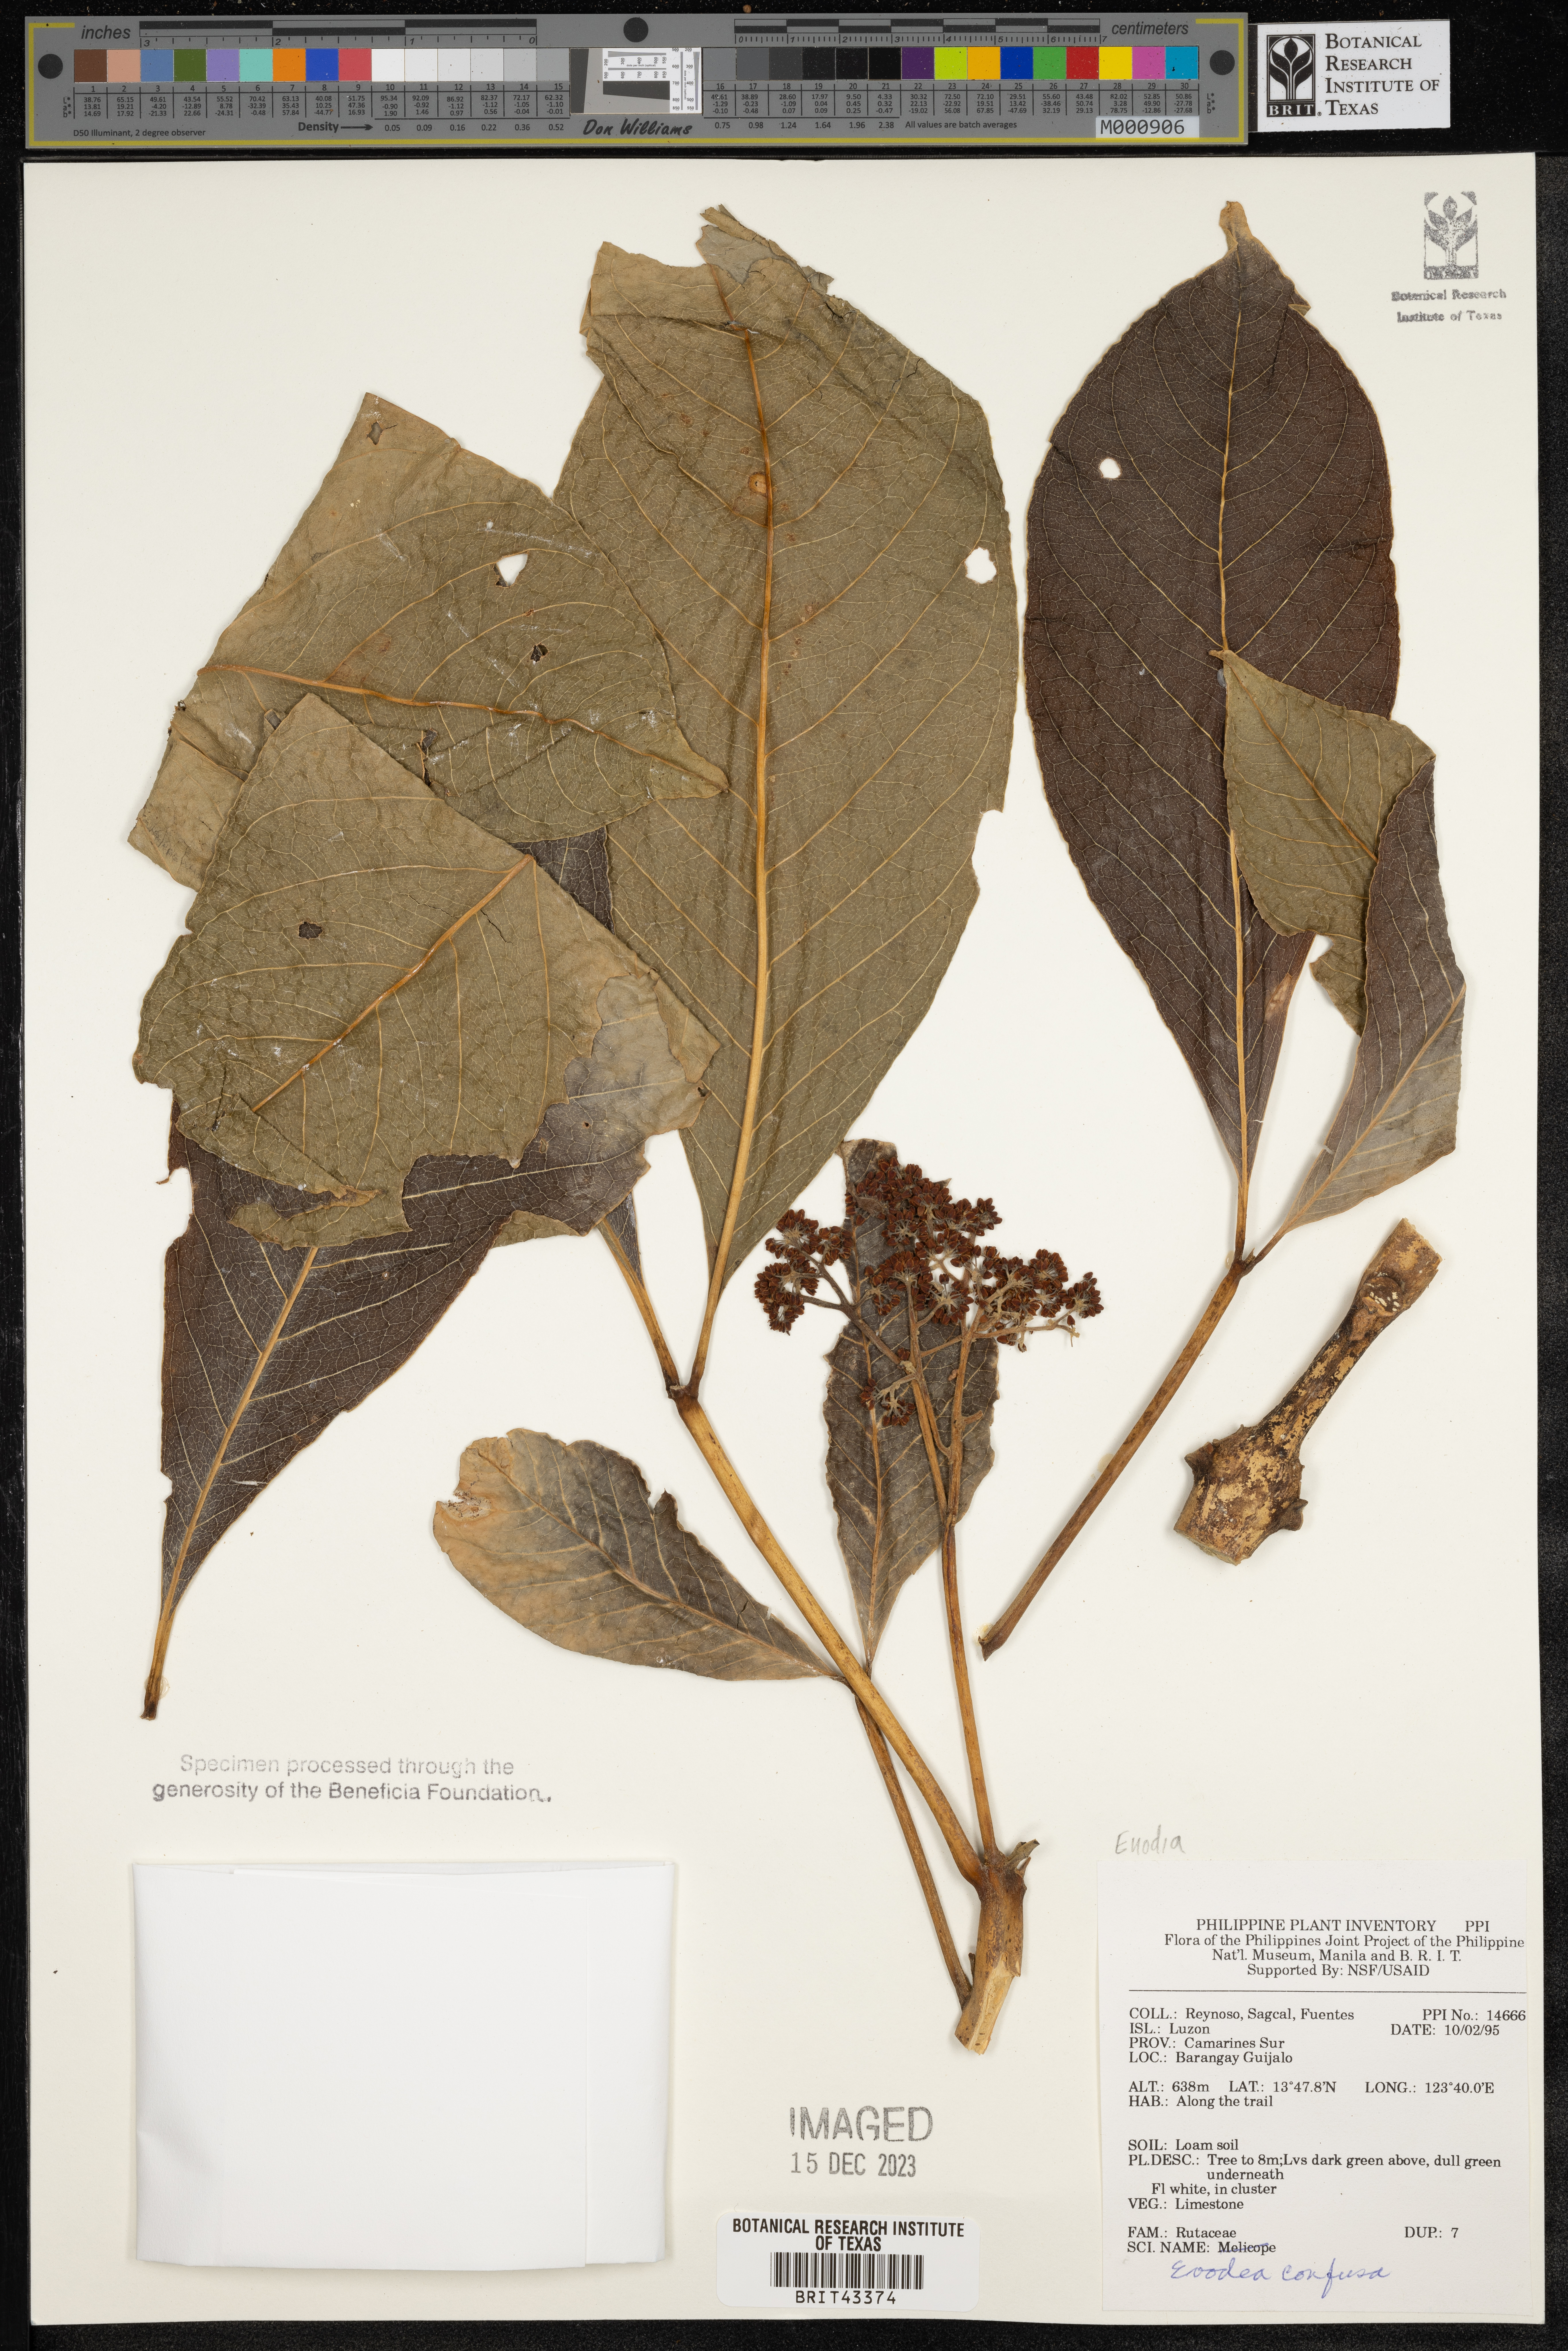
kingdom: Plantae
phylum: Tracheophyta
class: Magnoliopsida
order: Sapindales
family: Rutaceae
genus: Melicope
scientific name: Melicope frutescens
